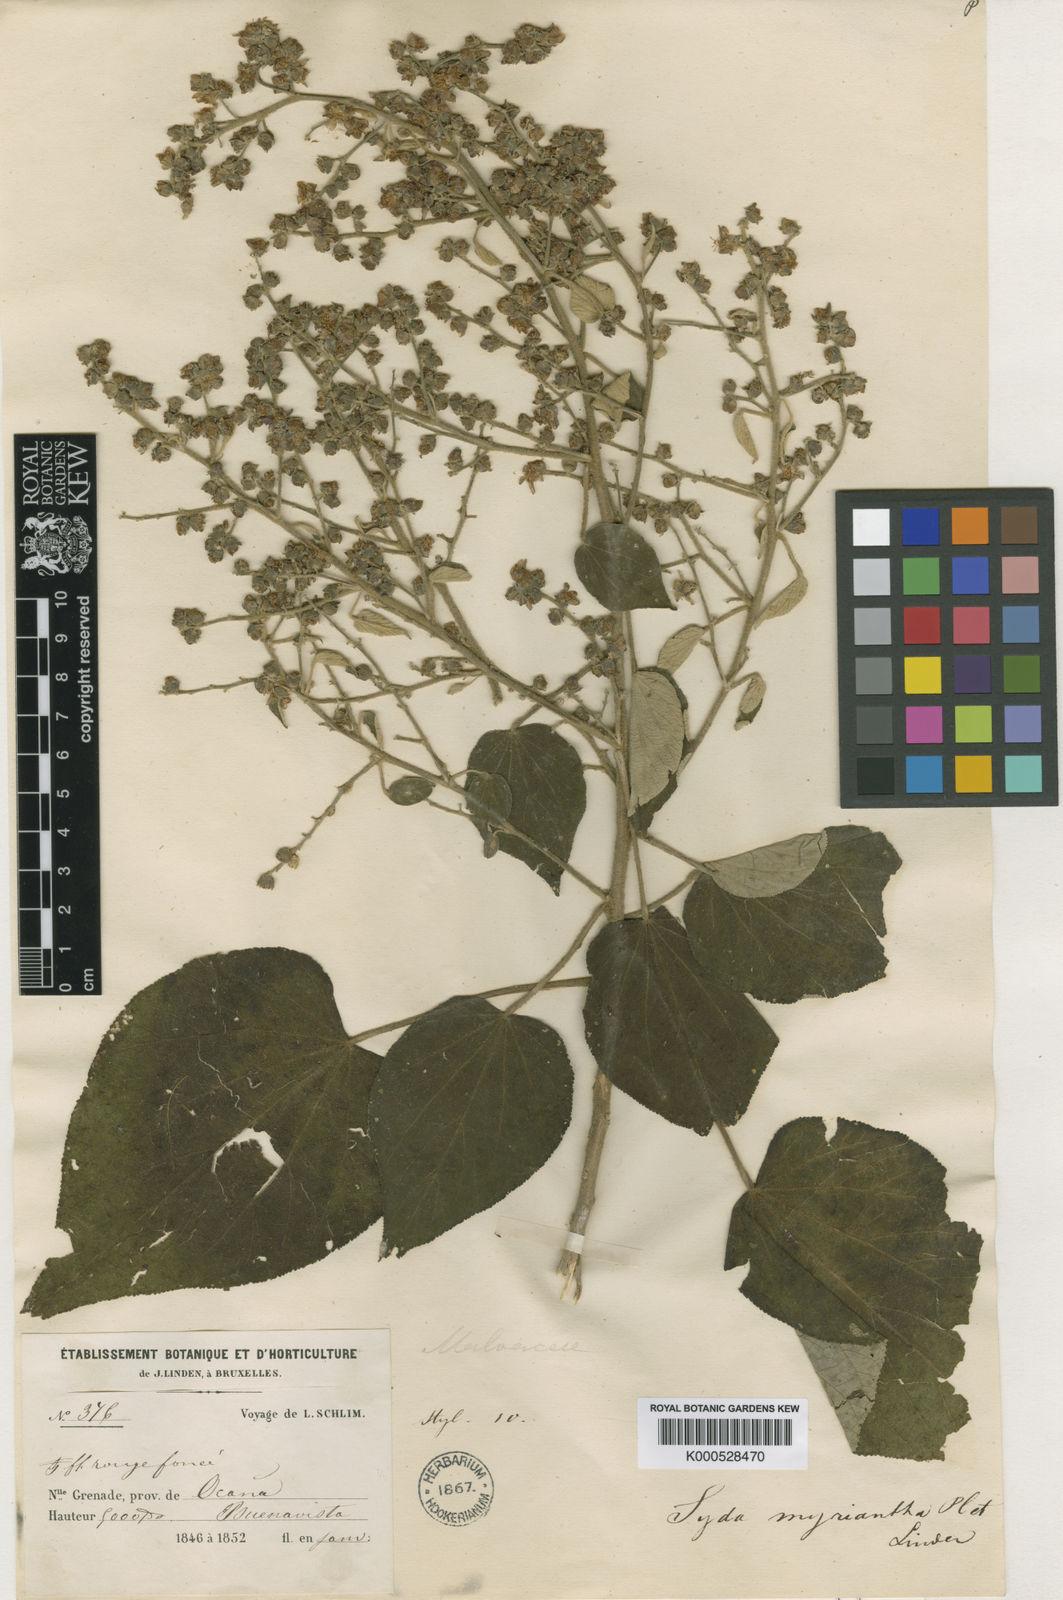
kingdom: Plantae
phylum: Tracheophyta
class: Magnoliopsida
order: Malvales
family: Malvaceae
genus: Bastardiopsis
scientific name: Bastardiopsis myrianthus
